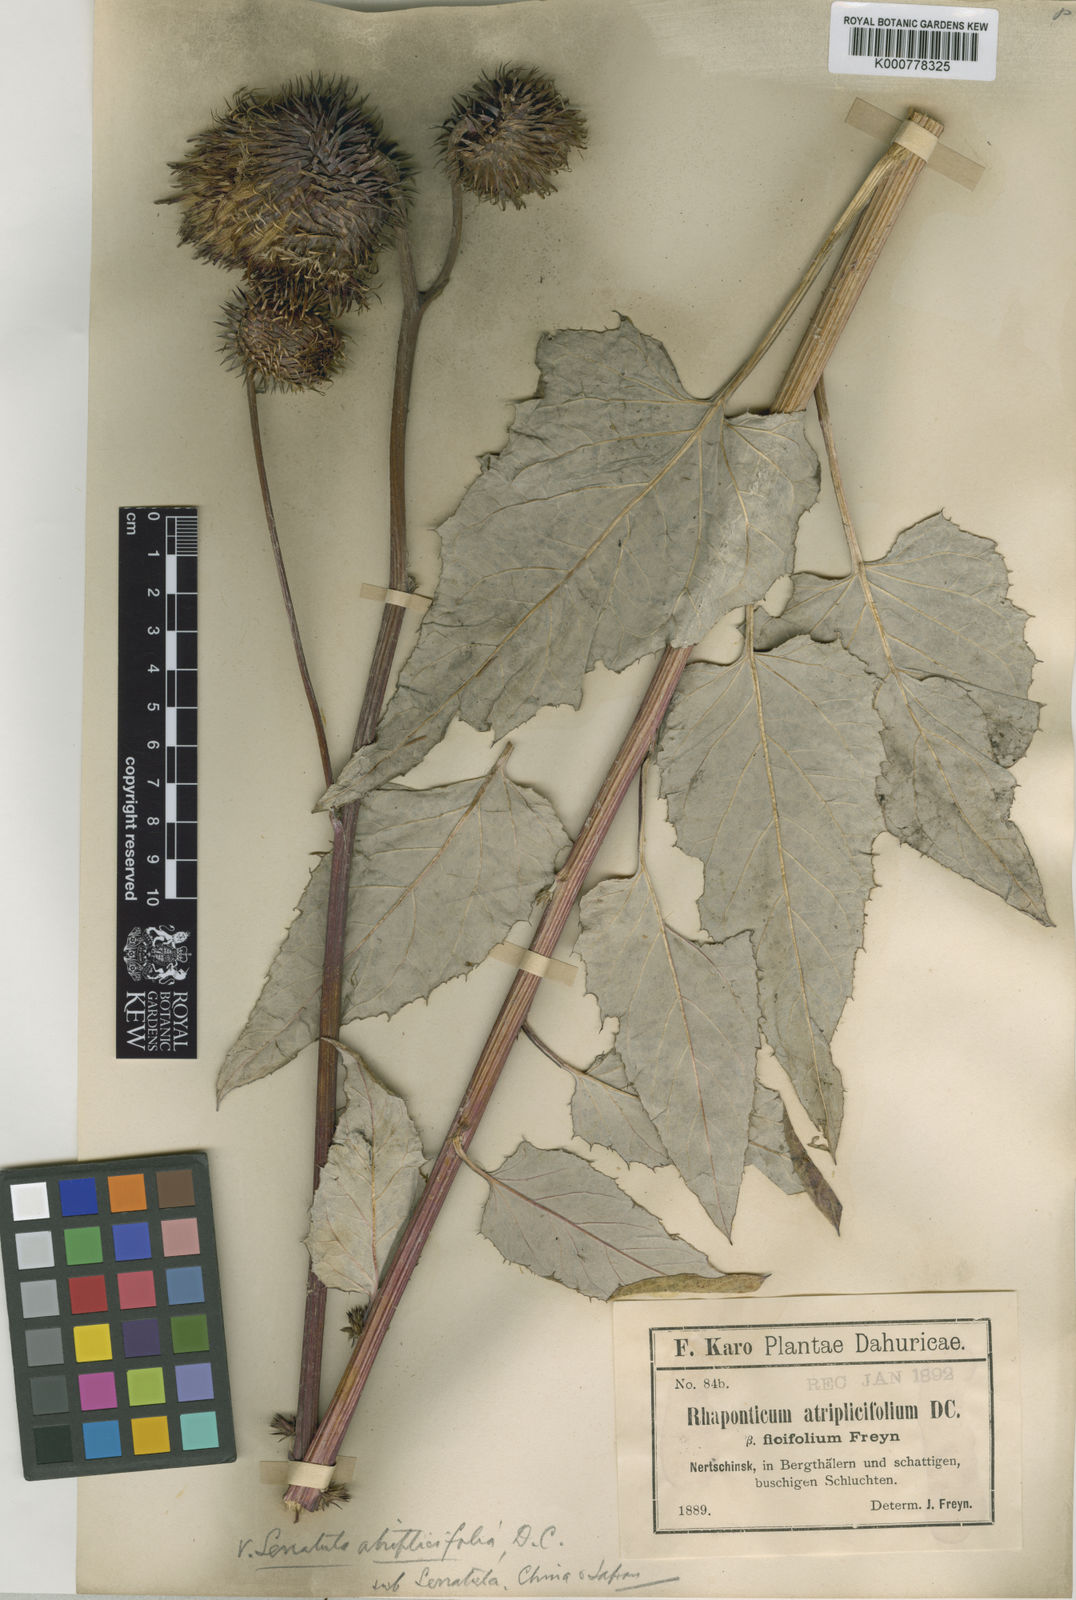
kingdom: Plantae
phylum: Tracheophyta
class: Magnoliopsida
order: Asterales
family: Asteraceae
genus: Olgaea
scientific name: Olgaea
